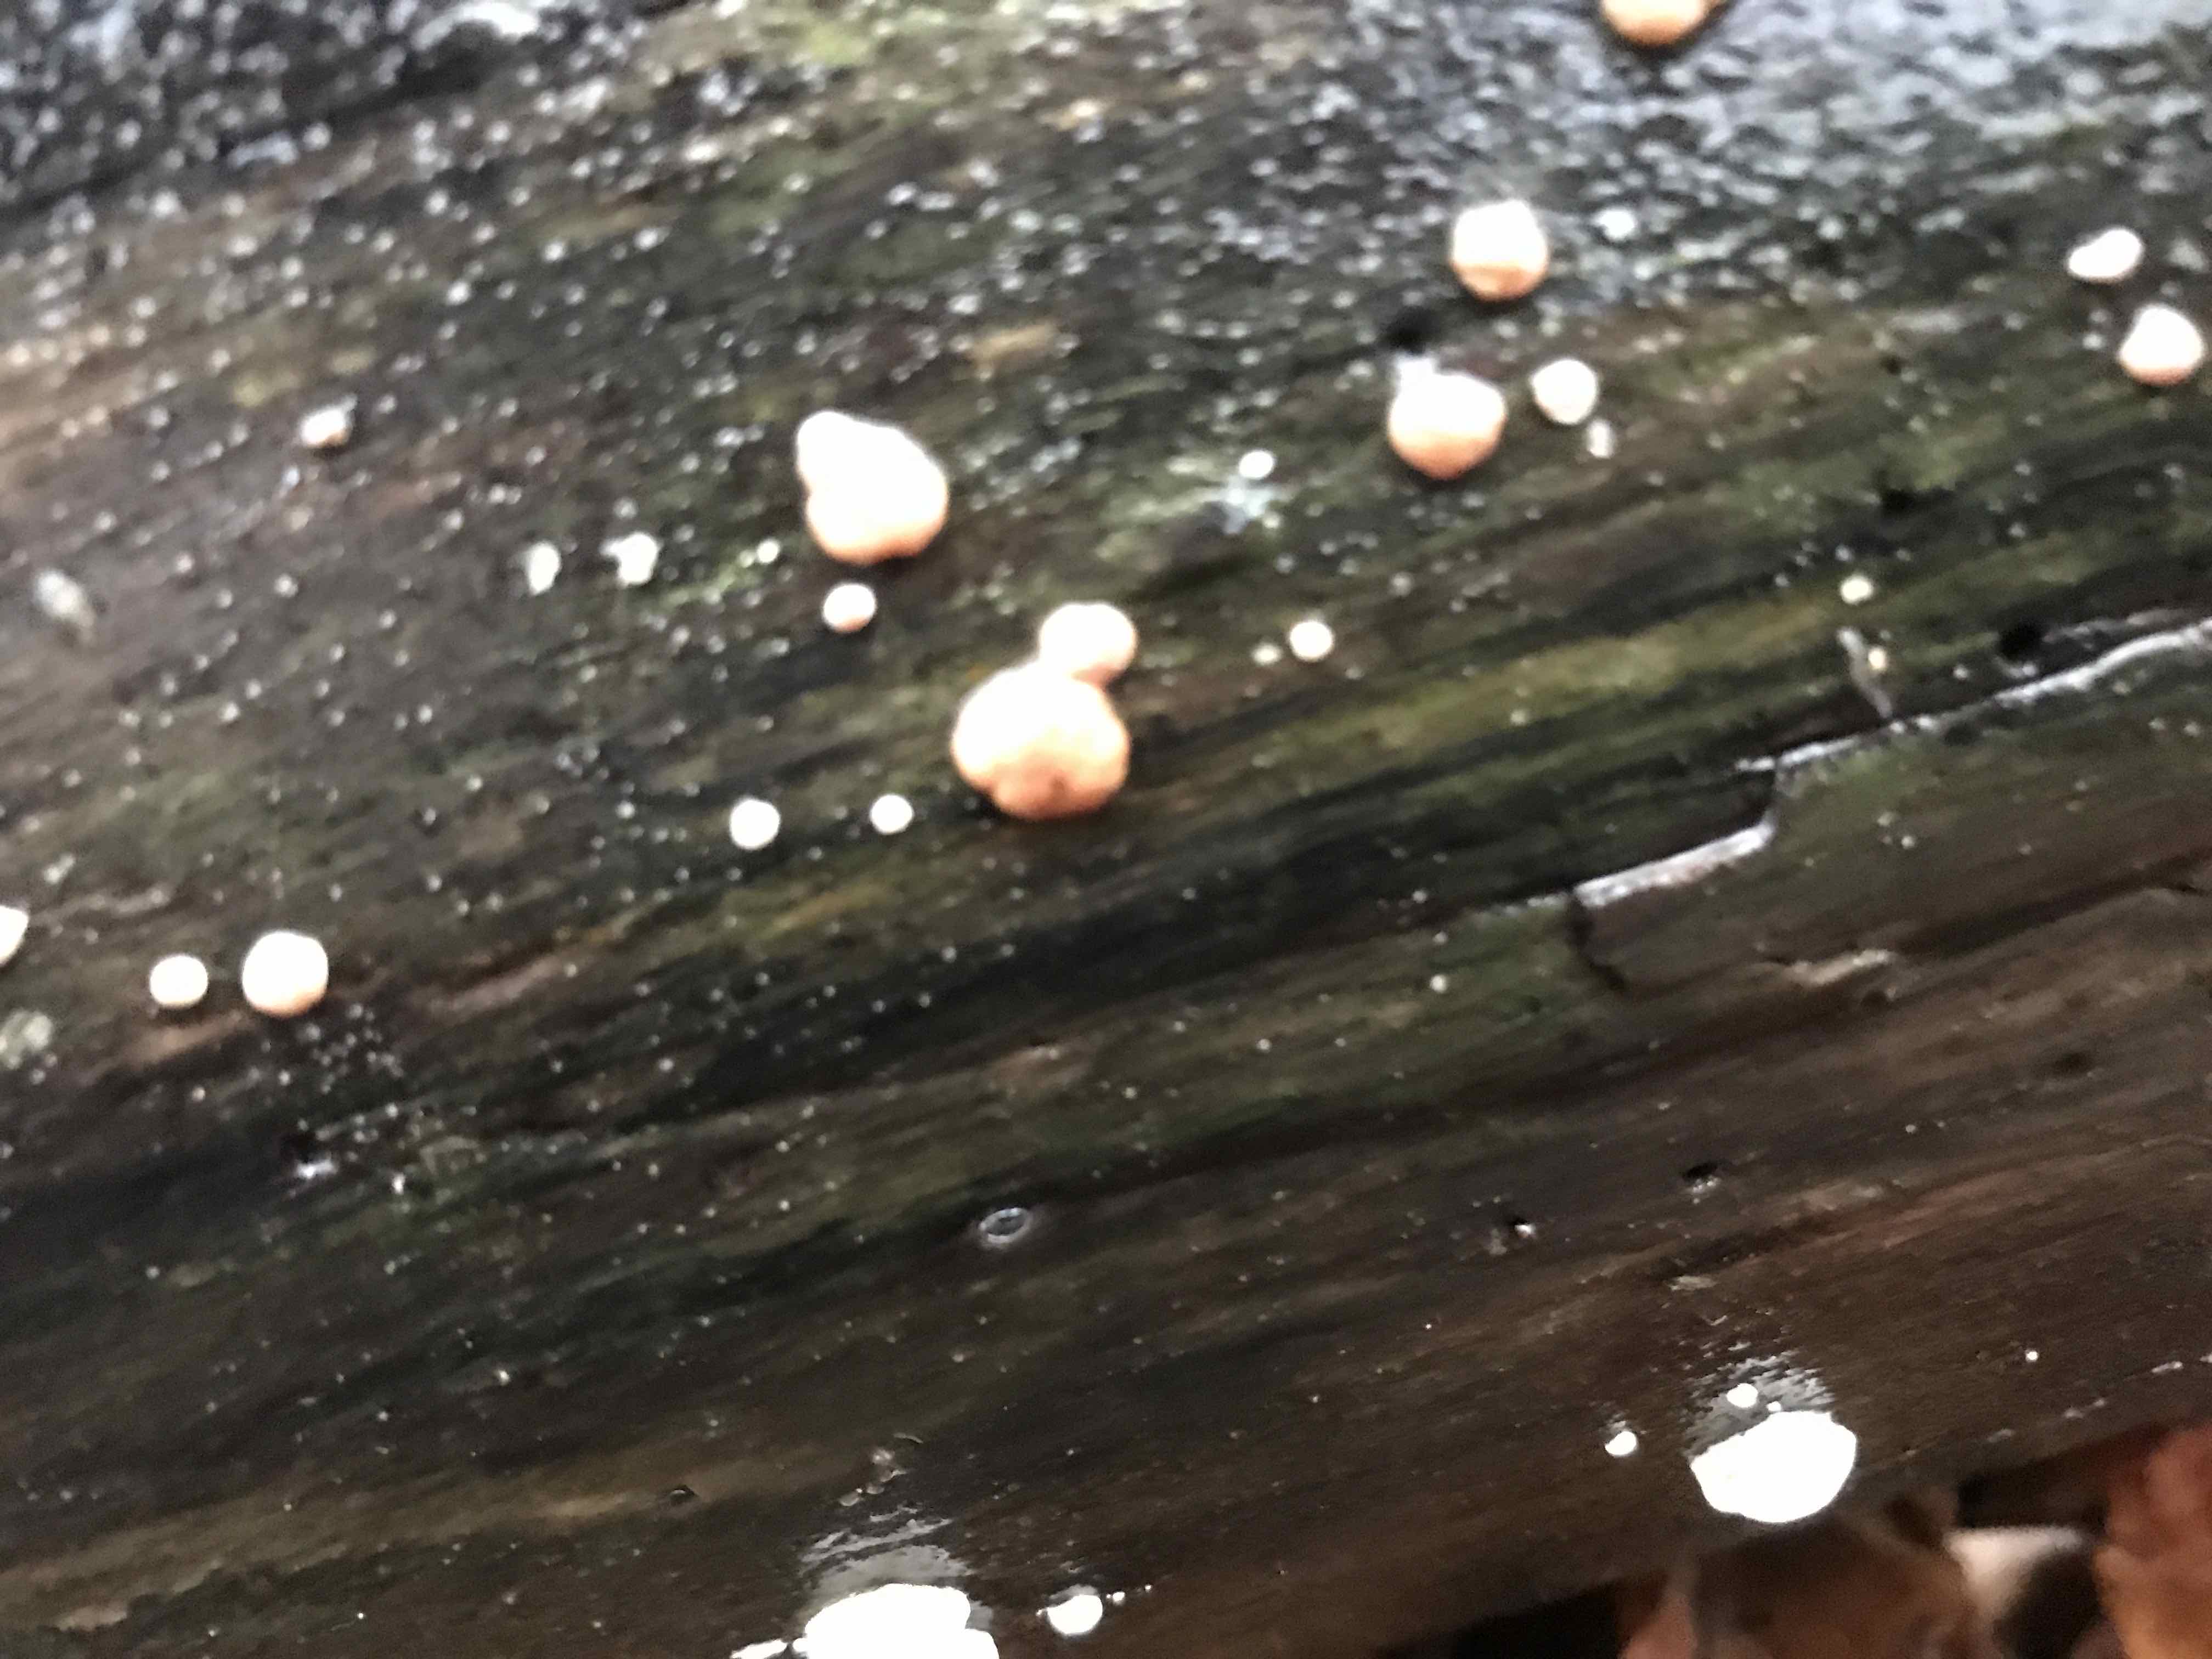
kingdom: Fungi
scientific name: Fungi
